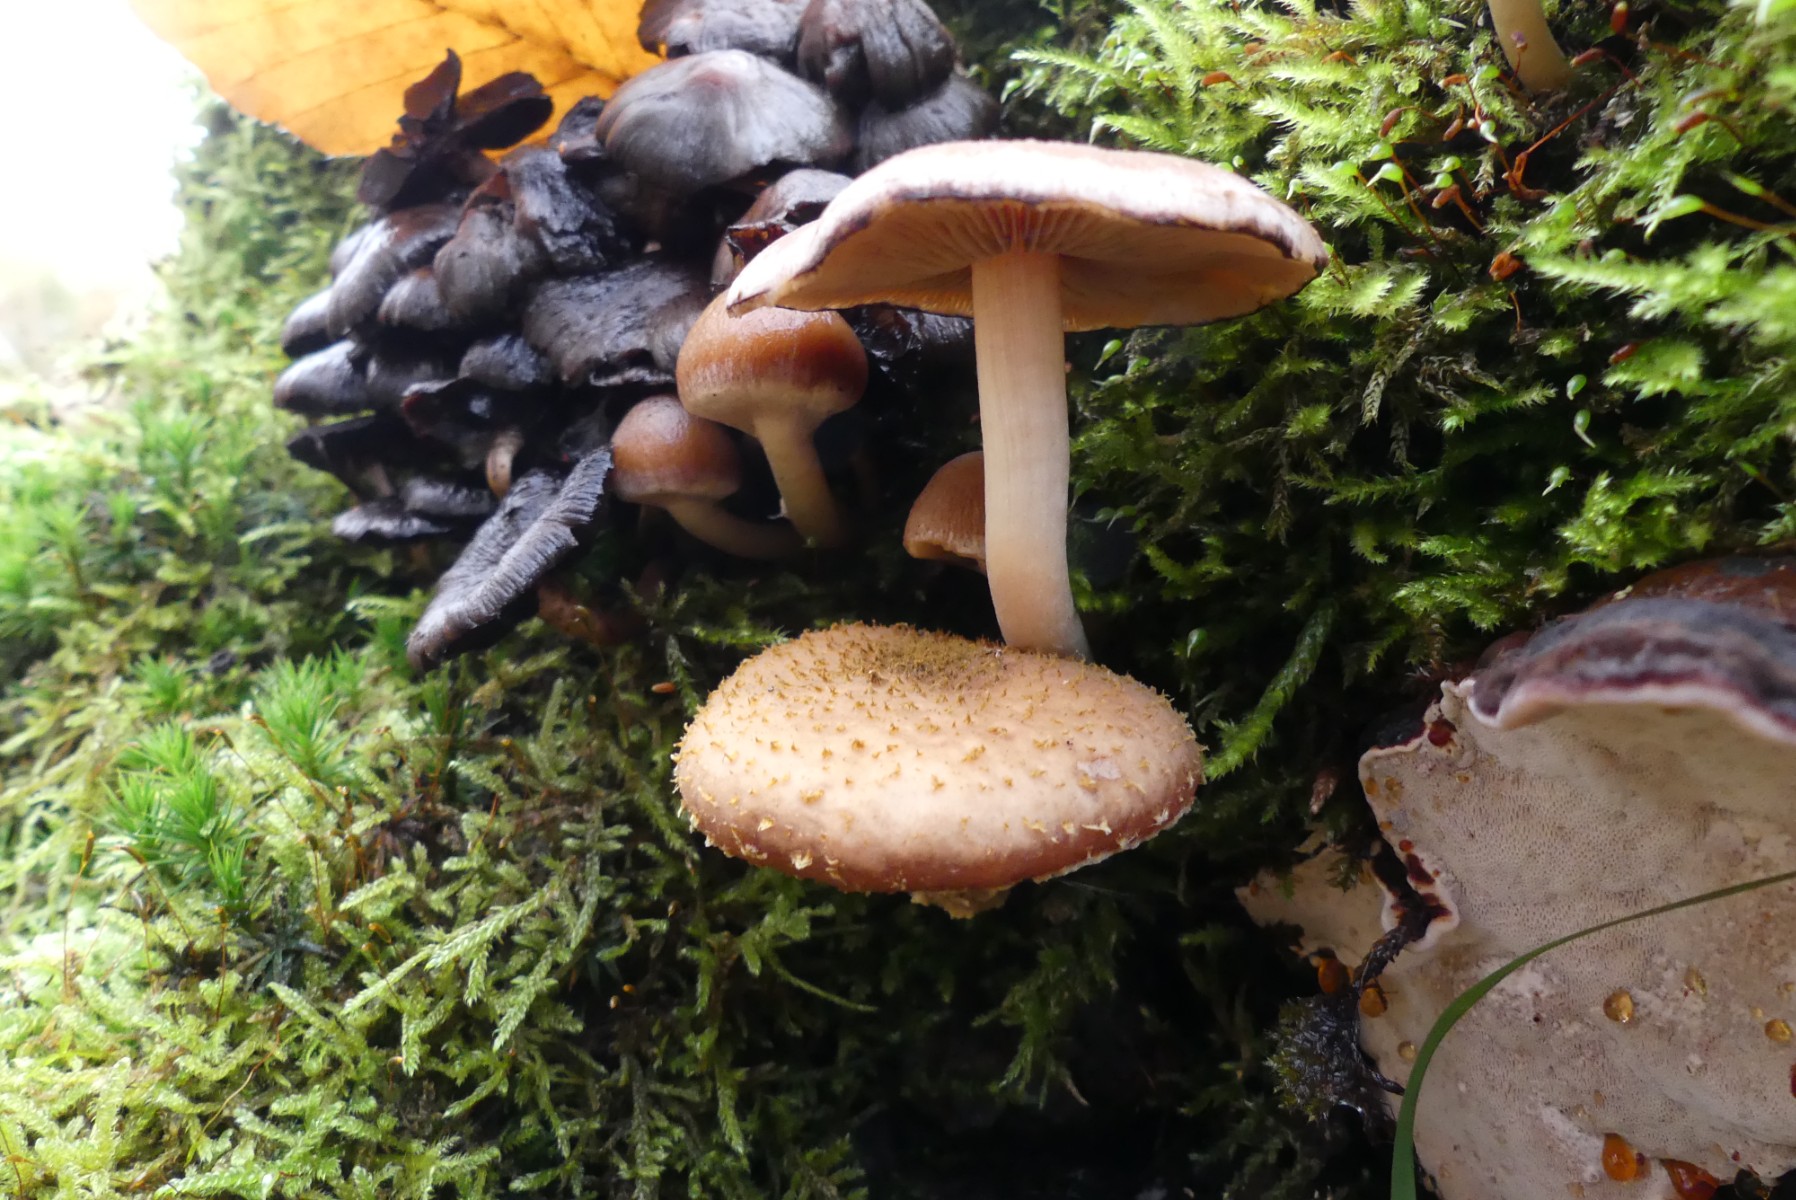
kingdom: Fungi
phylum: Basidiomycota
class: Agaricomycetes
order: Agaricales
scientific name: Agaricales
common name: champignonordenen
